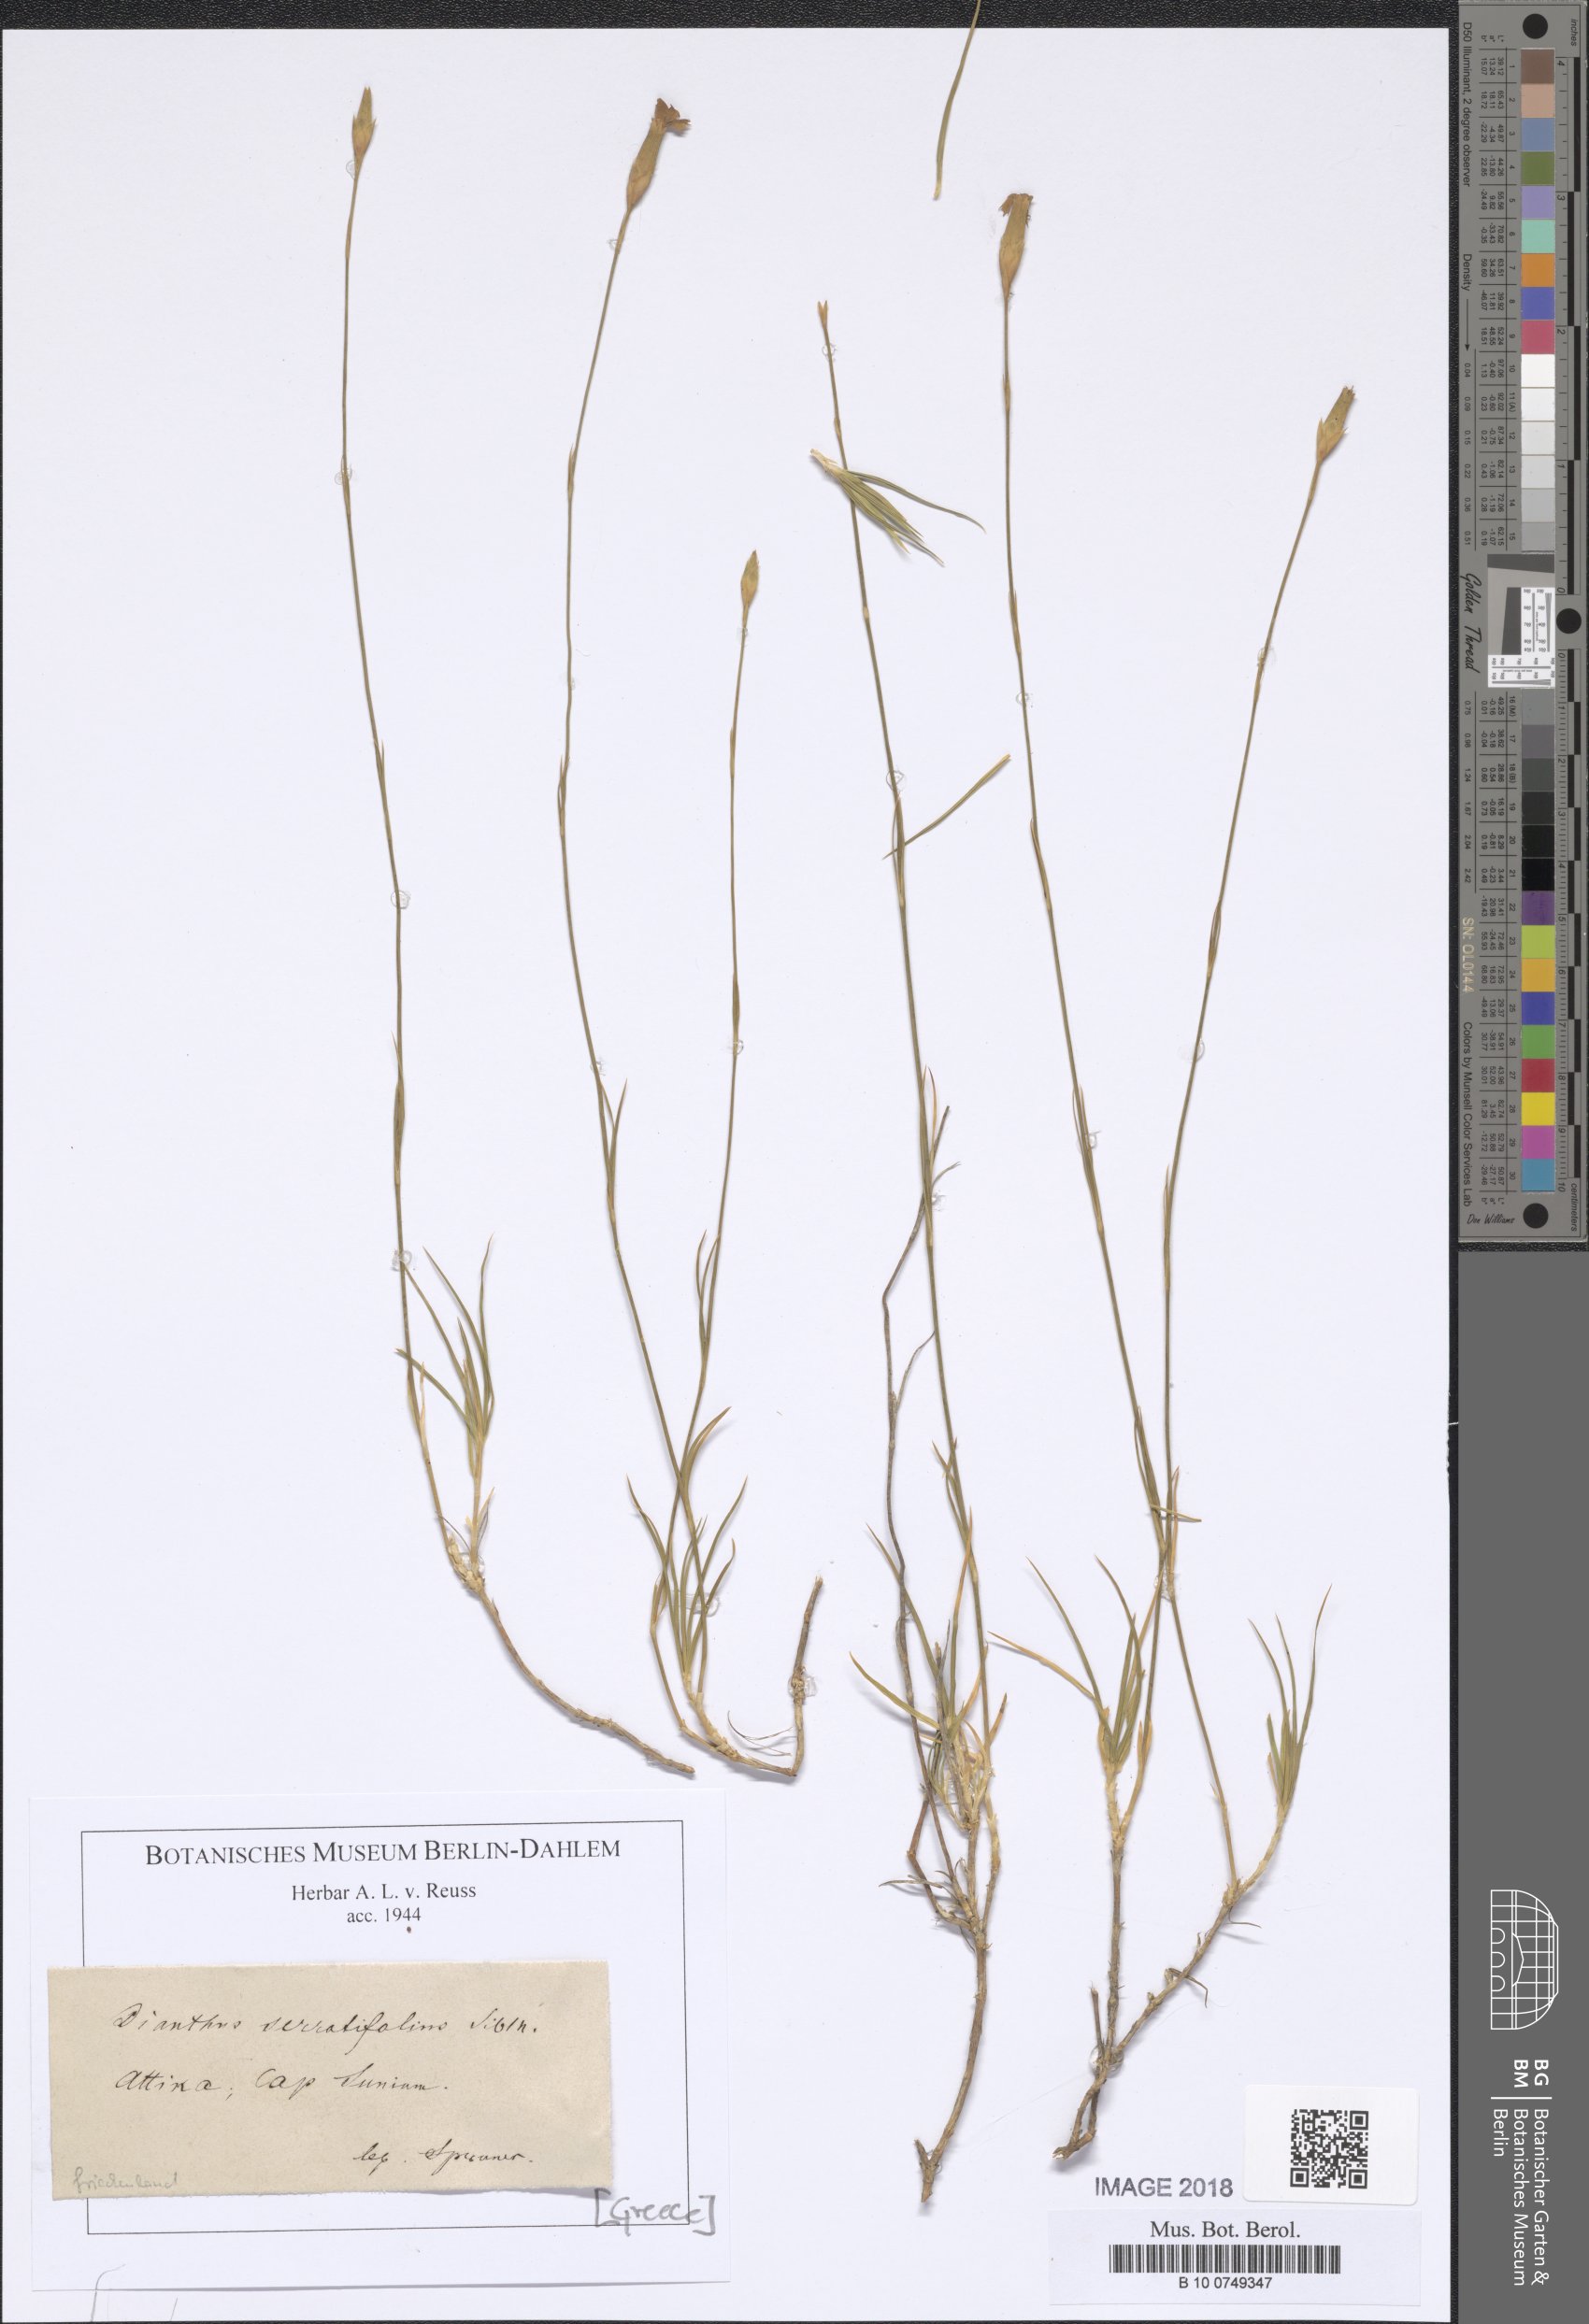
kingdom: Plantae
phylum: Tracheophyta
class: Magnoliopsida
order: Caryophyllales
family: Caryophyllaceae
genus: Dianthus
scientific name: Dianthus serratifolius
